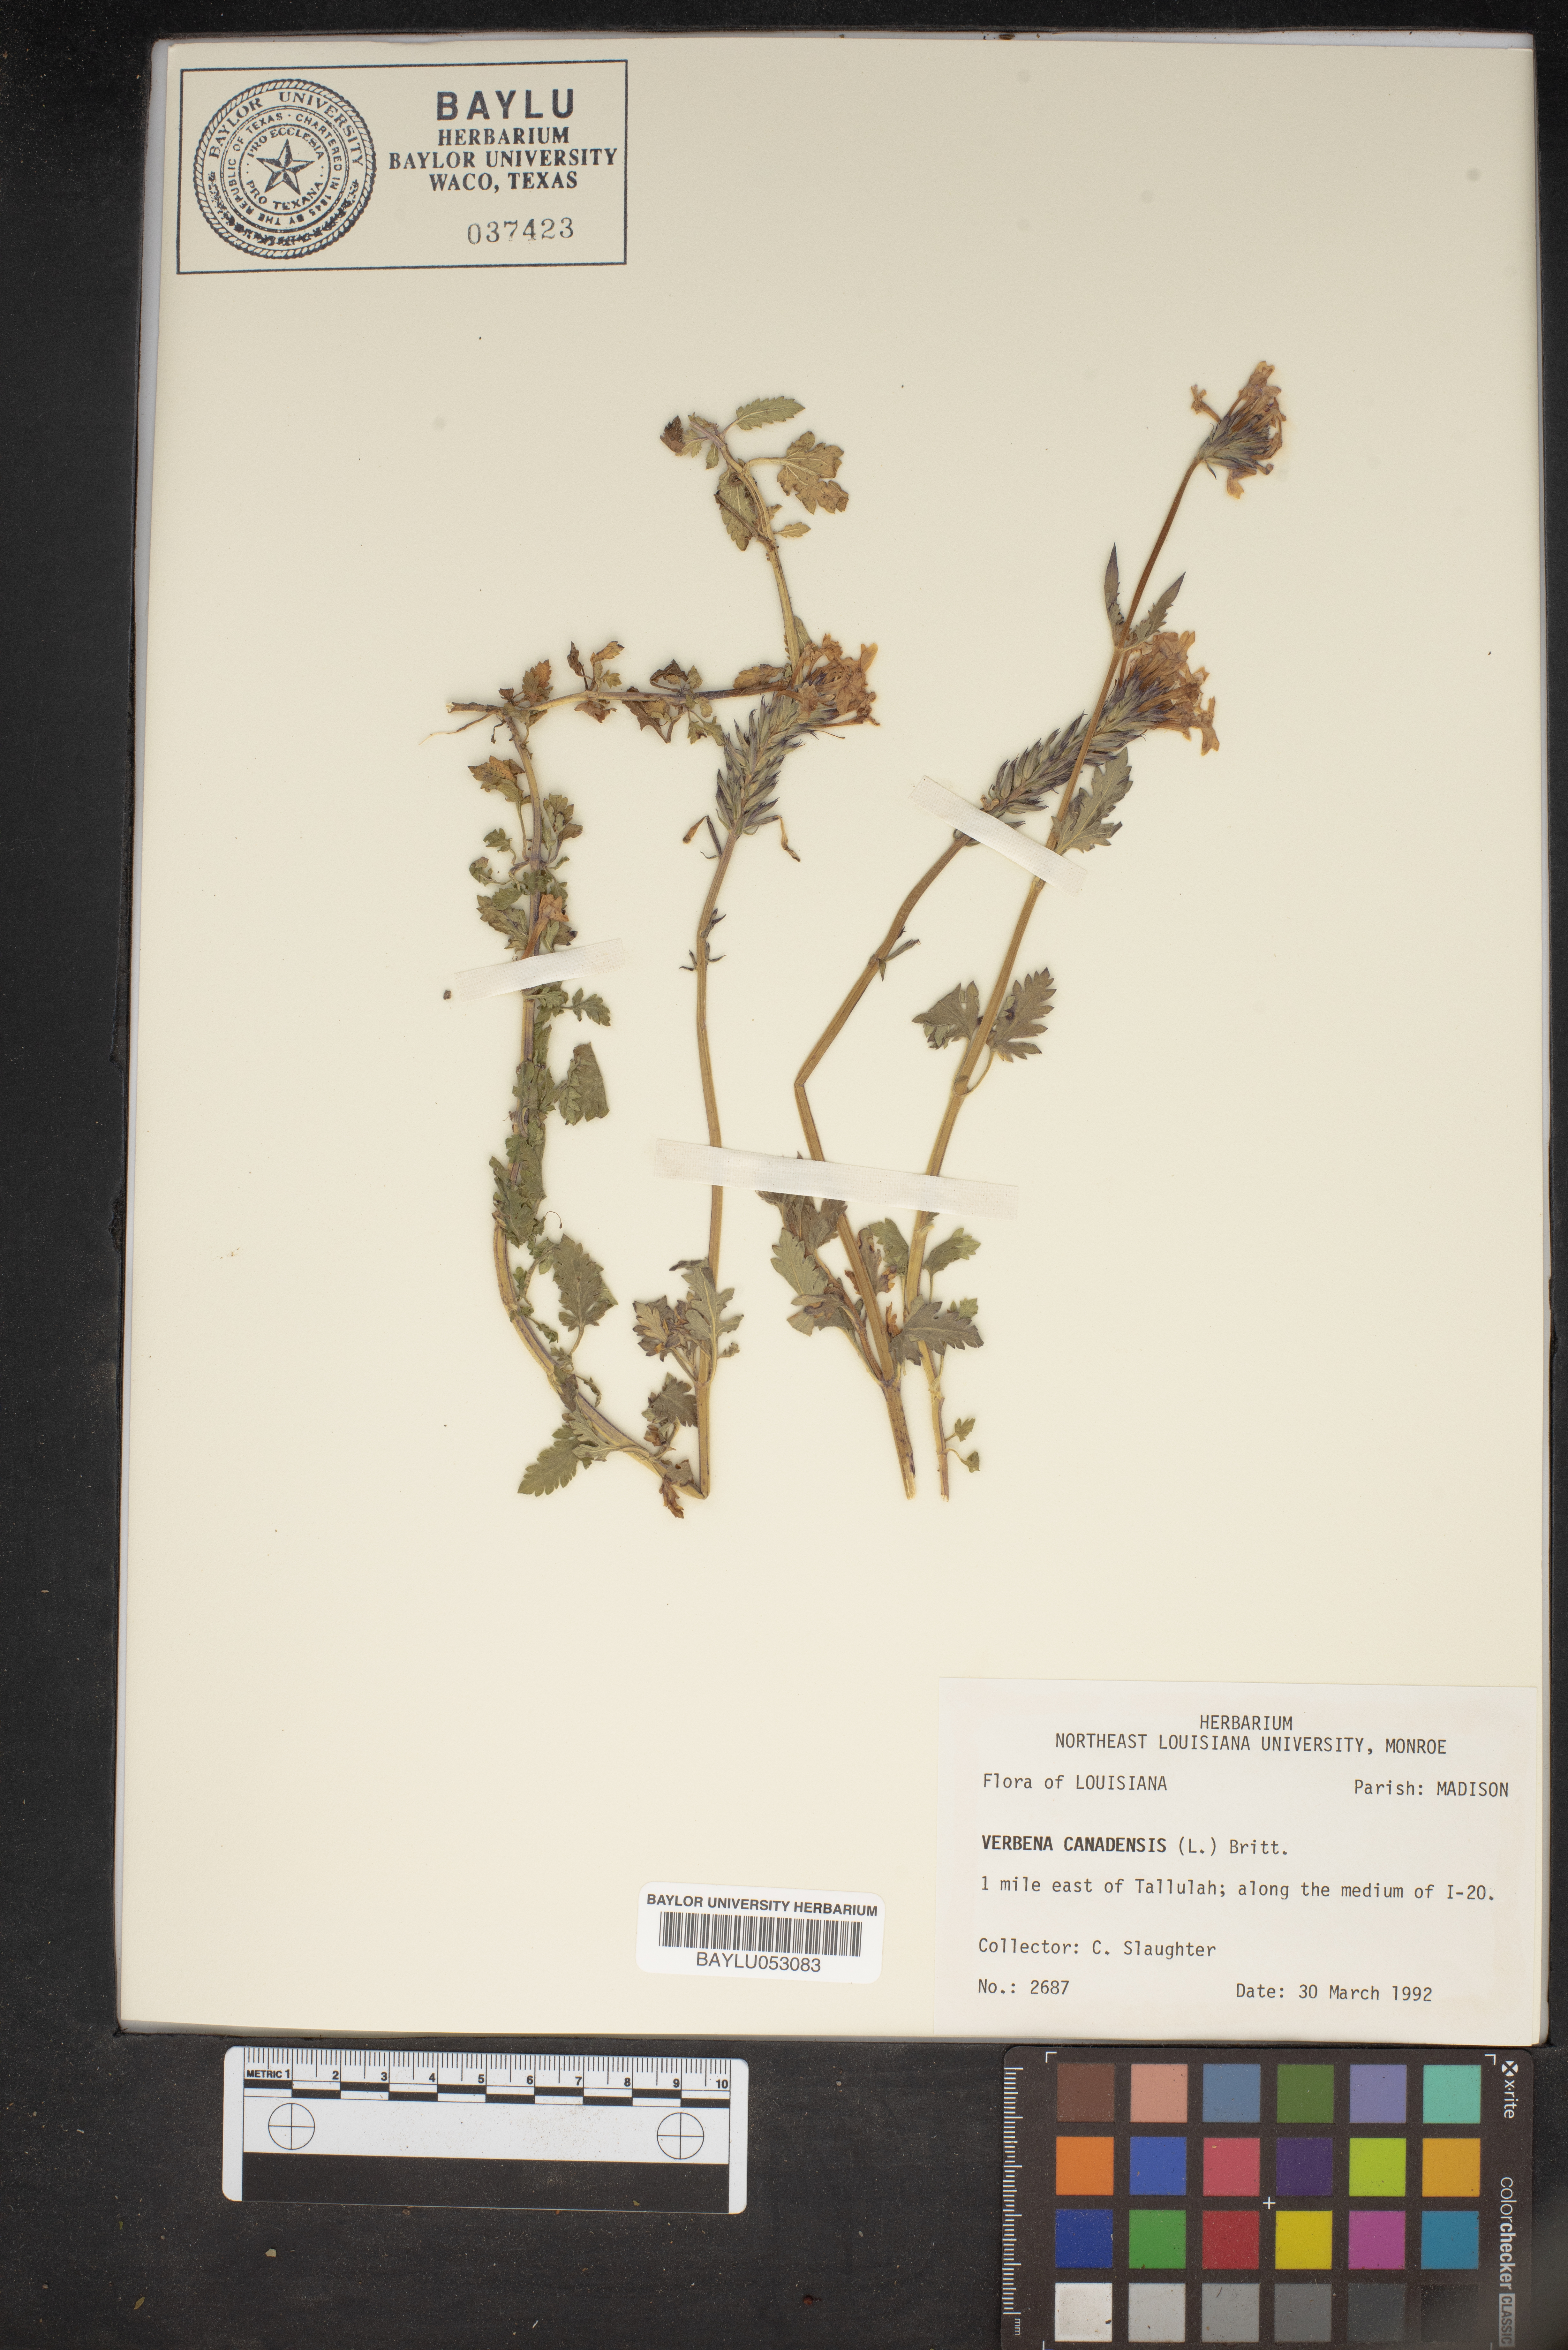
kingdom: Plantae
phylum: Tracheophyta
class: Magnoliopsida
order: Lamiales
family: Verbenaceae
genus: Verbena
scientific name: Verbena canadensis
